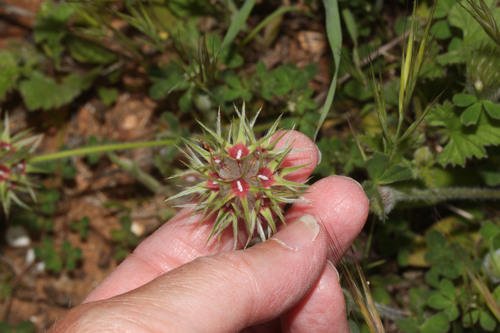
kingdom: Plantae
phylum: Tracheophyta
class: Magnoliopsida
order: Fabales
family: Fabaceae
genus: Trifolium
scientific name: Trifolium stellatum
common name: Starry clover
